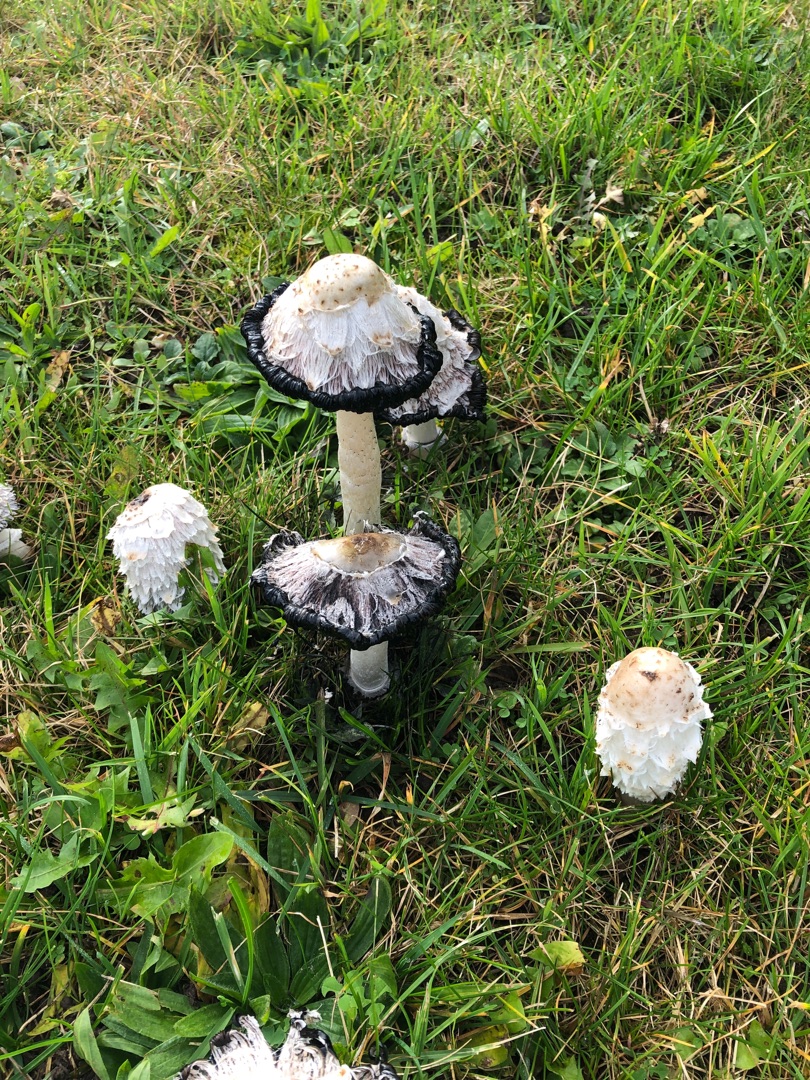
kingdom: Fungi
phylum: Basidiomycota
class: Agaricomycetes
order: Agaricales
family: Agaricaceae
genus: Coprinus
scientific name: Coprinus comatus
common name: Stor parykhat
